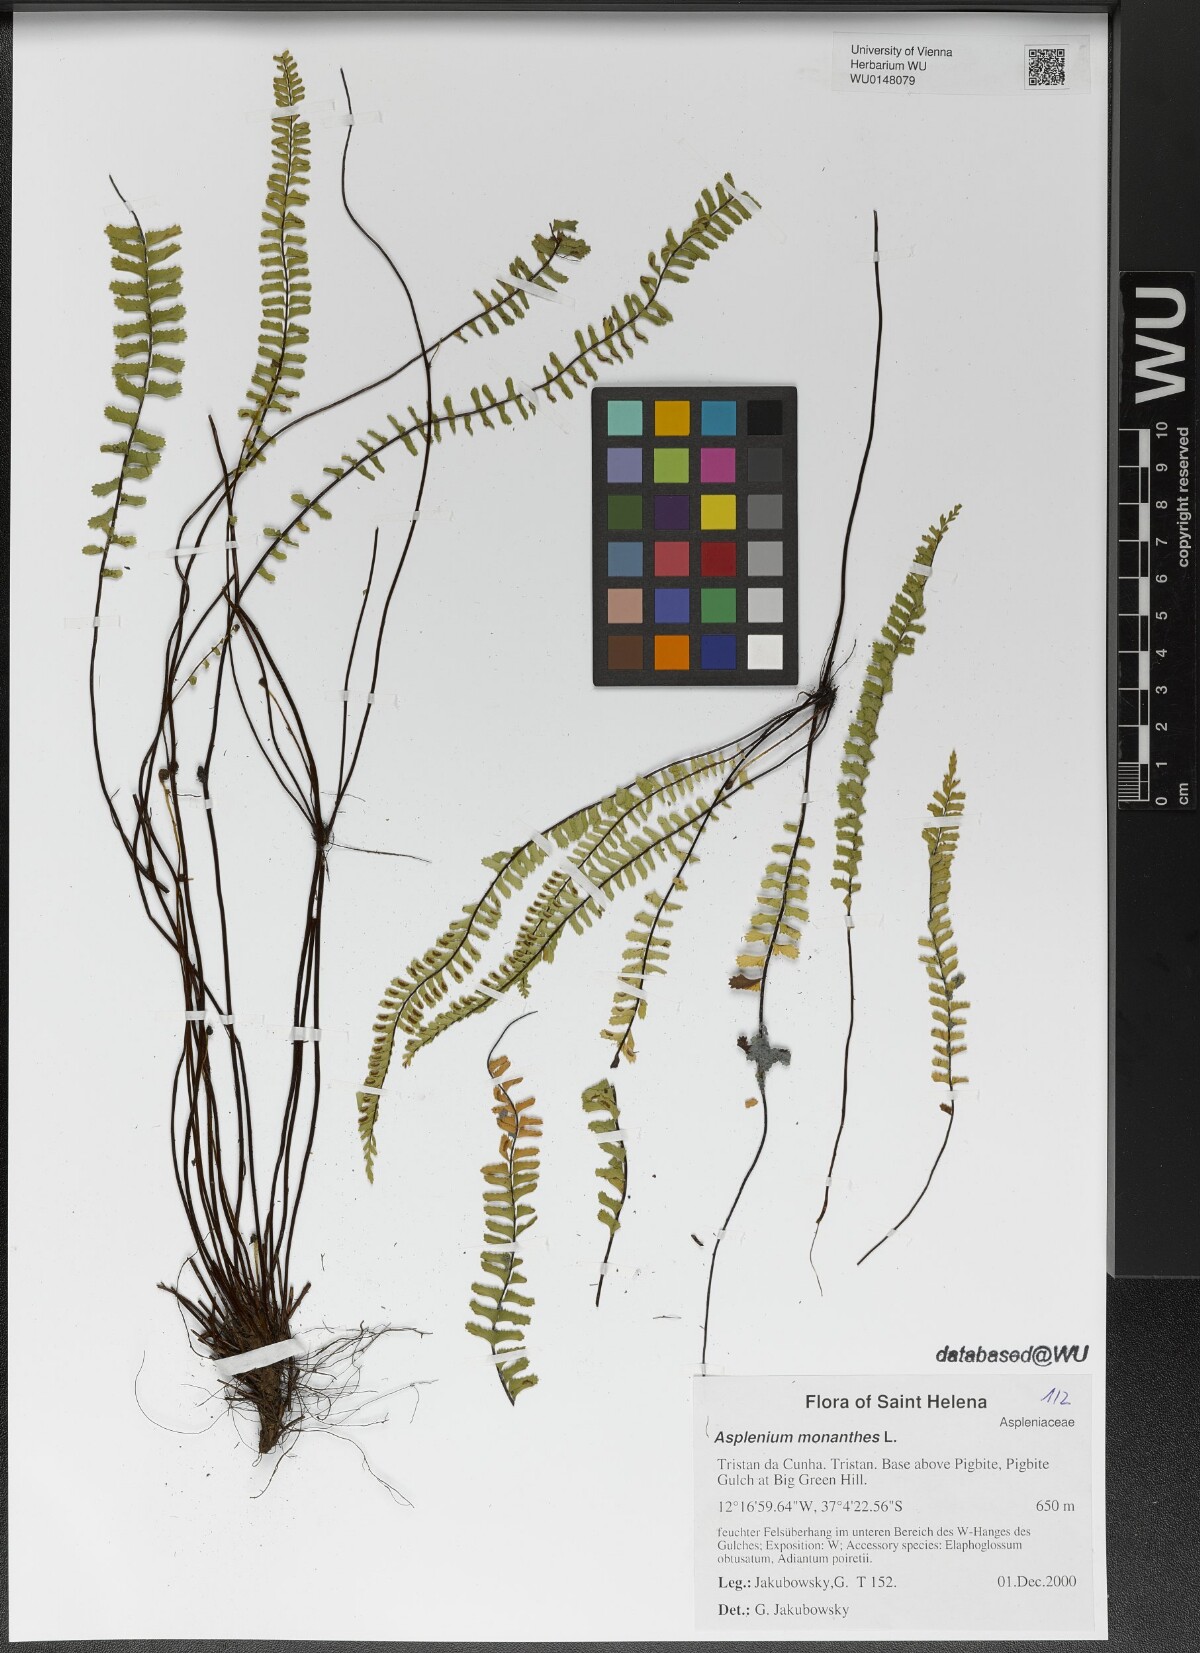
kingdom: Plantae
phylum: Tracheophyta
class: Polypodiopsida
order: Polypodiales
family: Aspleniaceae
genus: Asplenium
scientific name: Asplenium monanthes
